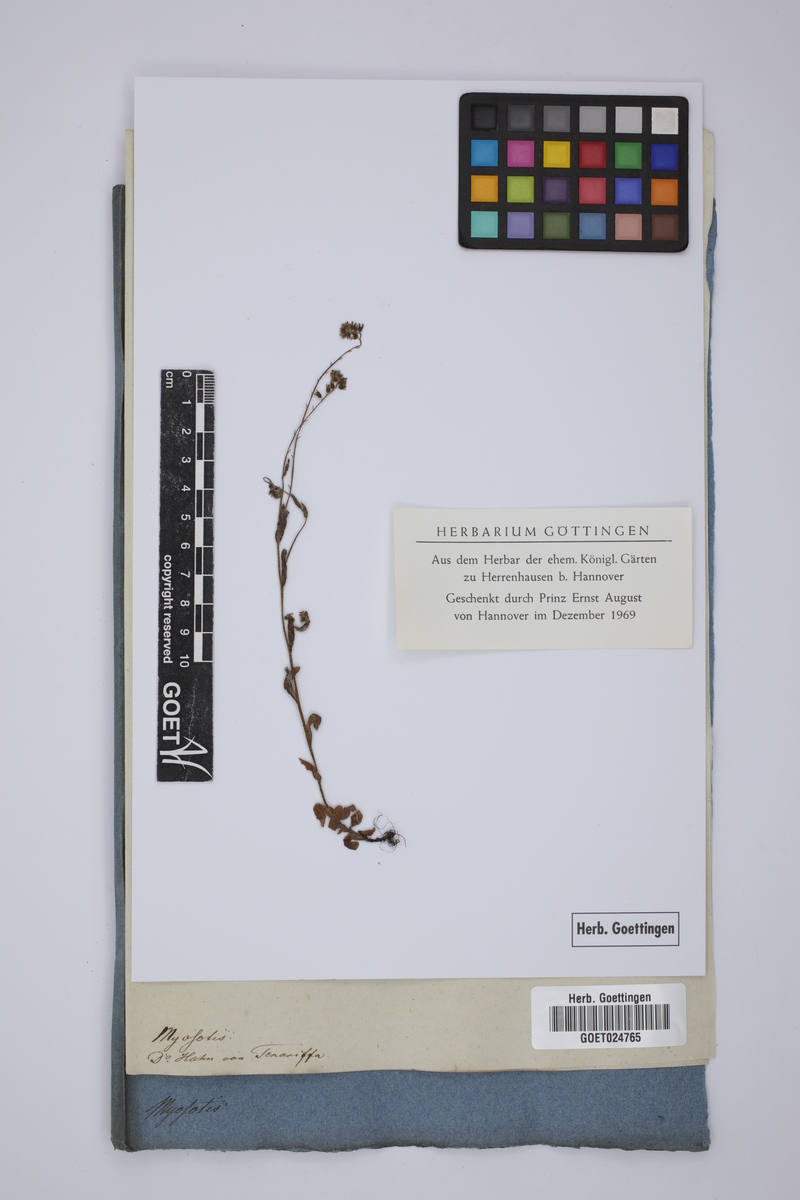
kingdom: Plantae
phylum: Tracheophyta
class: Magnoliopsida
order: Boraginales
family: Boraginaceae
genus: Myosotis
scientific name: Myosotis
